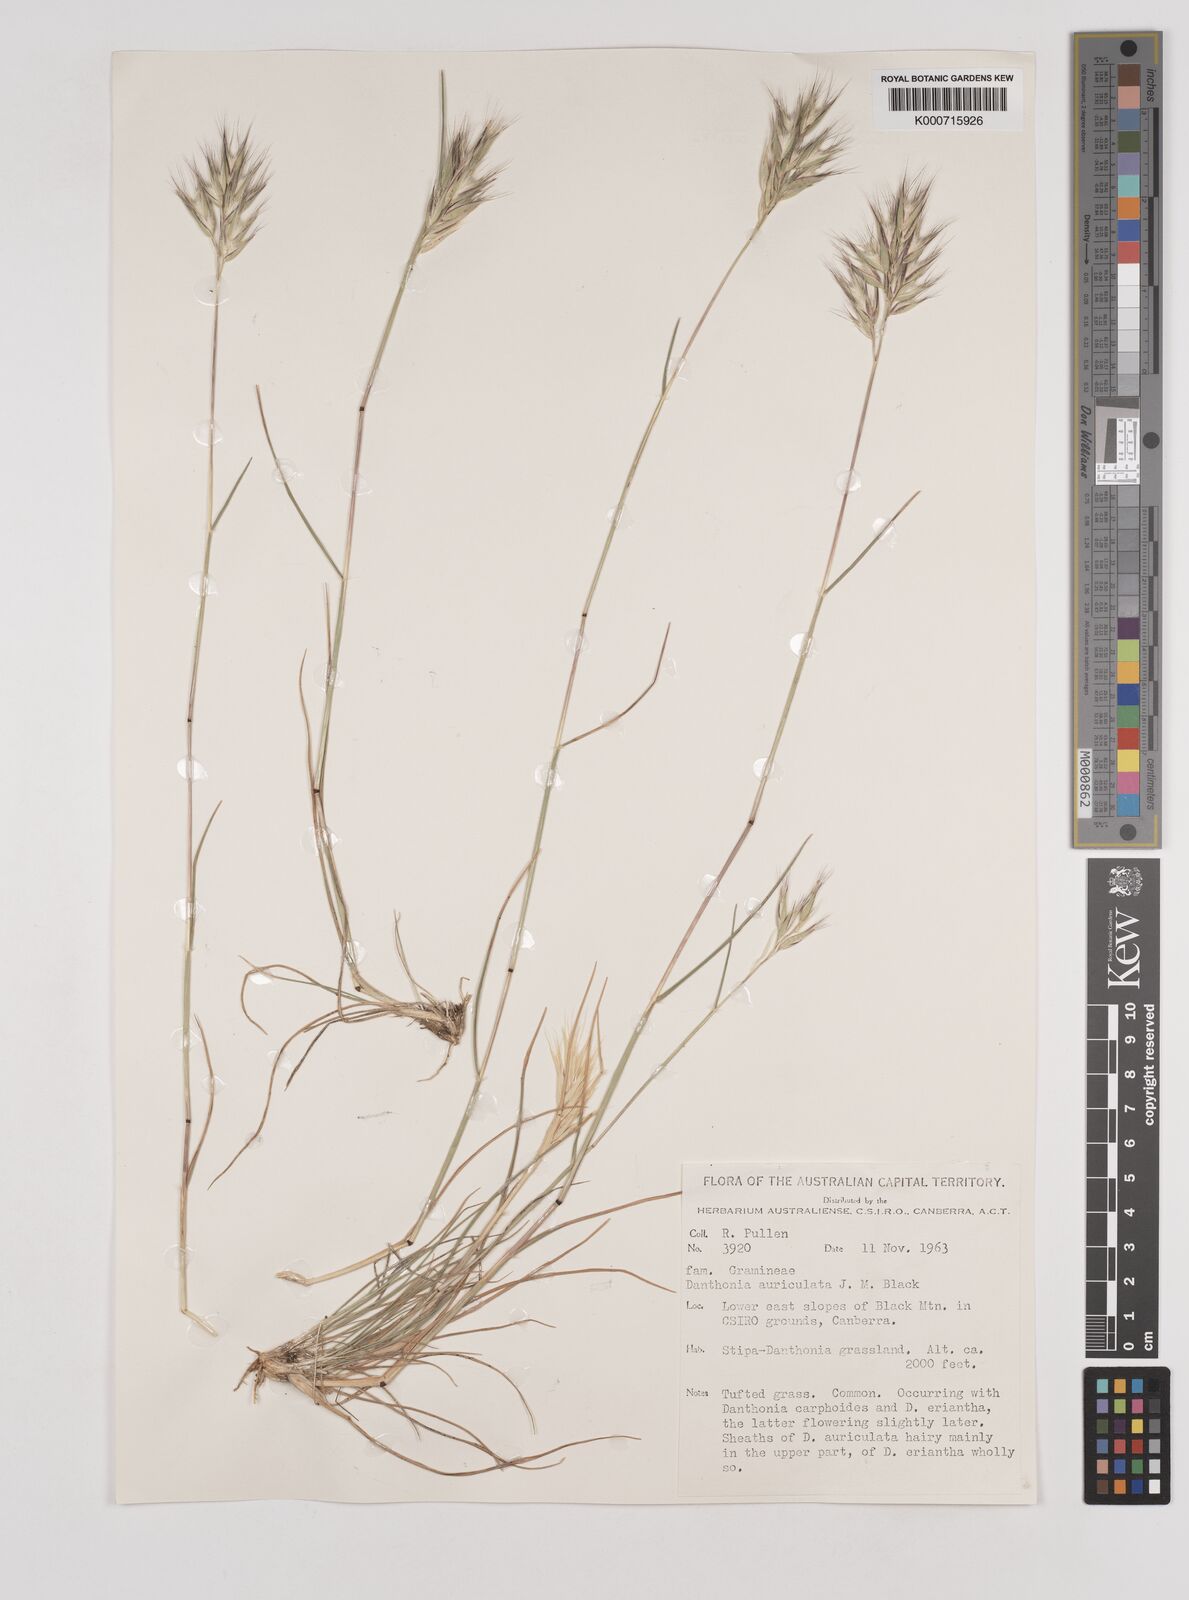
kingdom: Plantae
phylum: Tracheophyta
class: Liliopsida
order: Poales
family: Poaceae
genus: Rytidosperma
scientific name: Rytidosperma auriculatum
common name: Lobed wallaby grass
